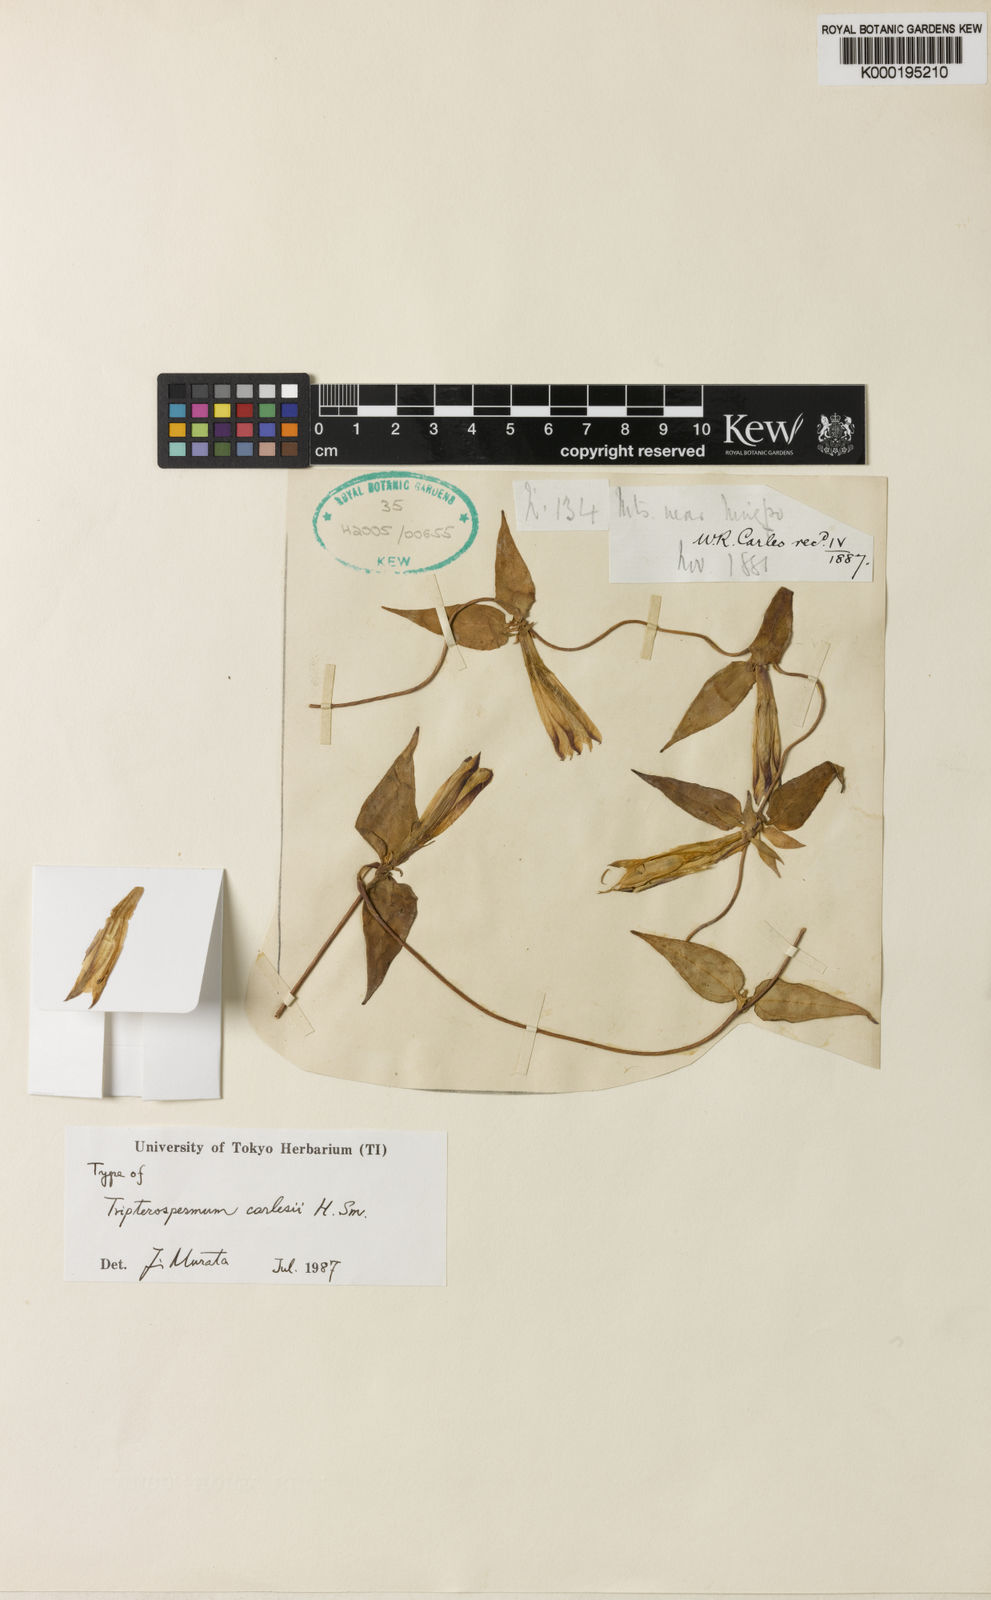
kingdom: Plantae
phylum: Tracheophyta
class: Magnoliopsida
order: Gentianales
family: Gentianaceae
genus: Tripterospermum
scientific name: Tripterospermum discoideum
